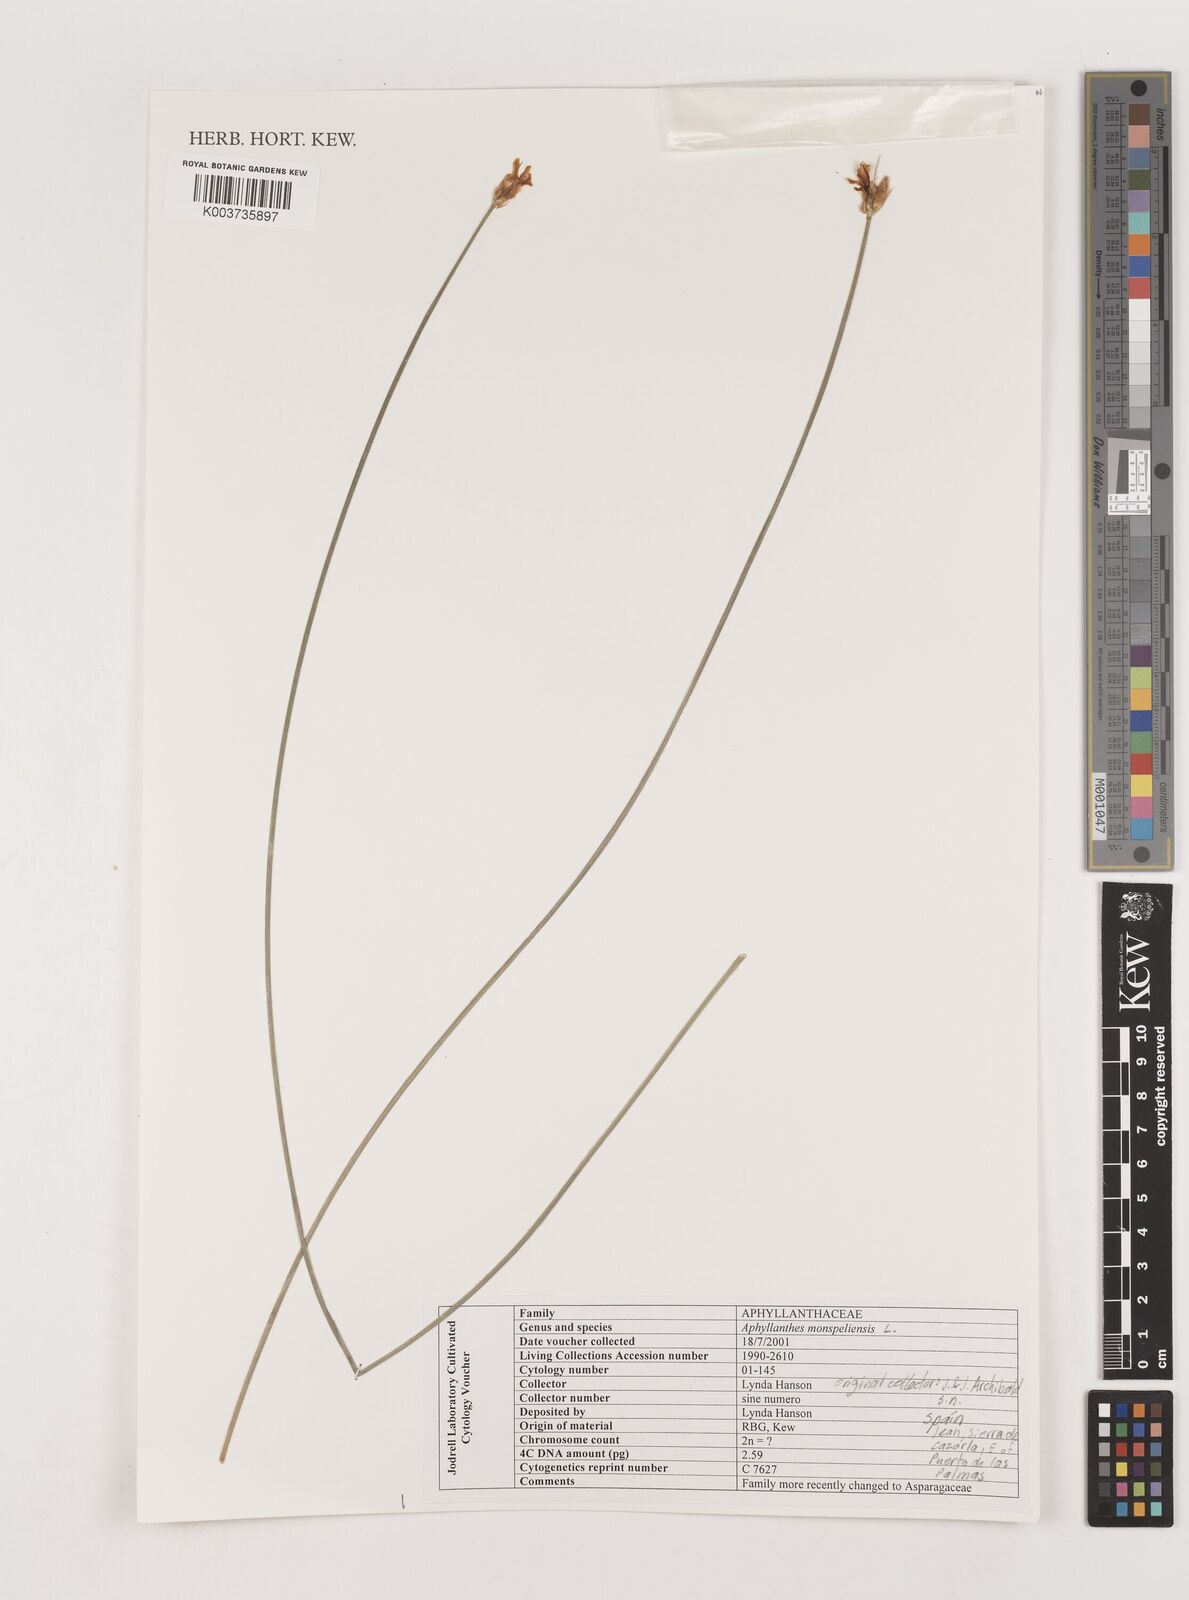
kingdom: Plantae
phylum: Tracheophyta
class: Liliopsida
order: Asparagales
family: Asparagaceae
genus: Aphyllanthes
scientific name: Aphyllanthes monspeliensis
